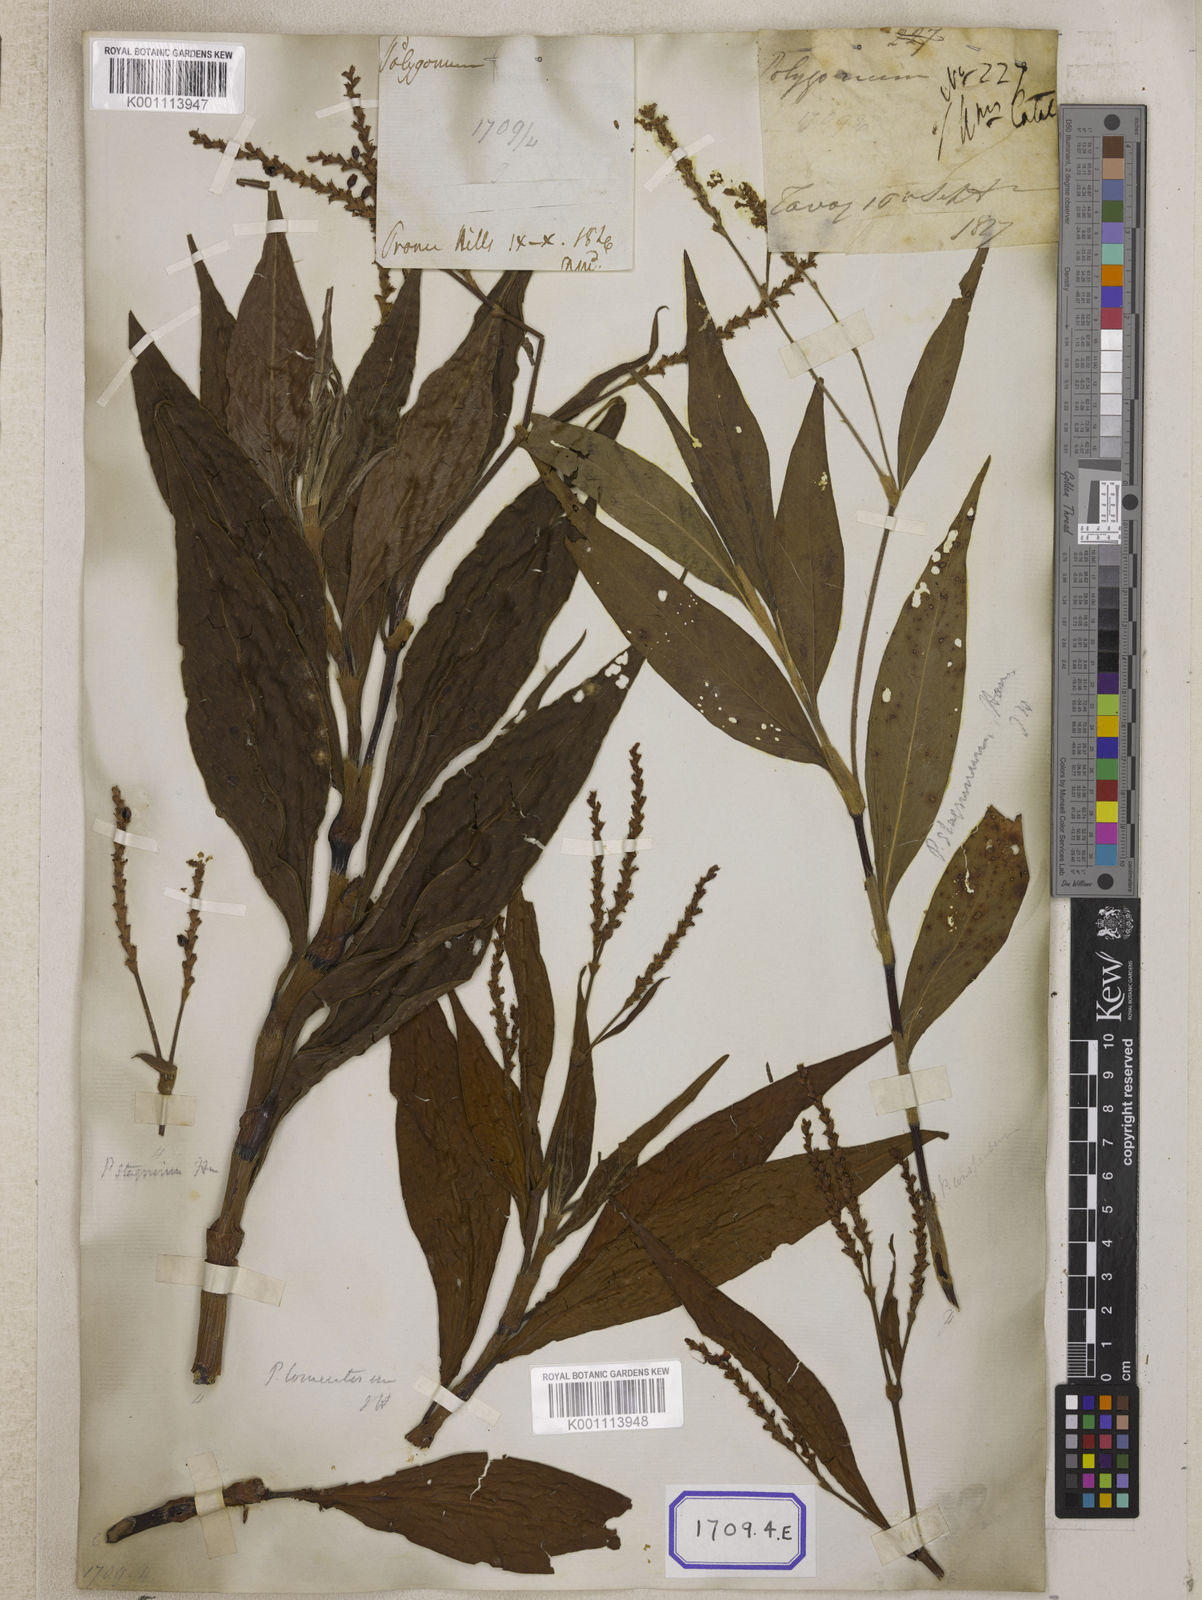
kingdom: Plantae
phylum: Tracheophyta
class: Magnoliopsida
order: Caryophyllales
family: Polygonaceae
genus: Persicaria
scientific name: Persicaria madagascariensis
